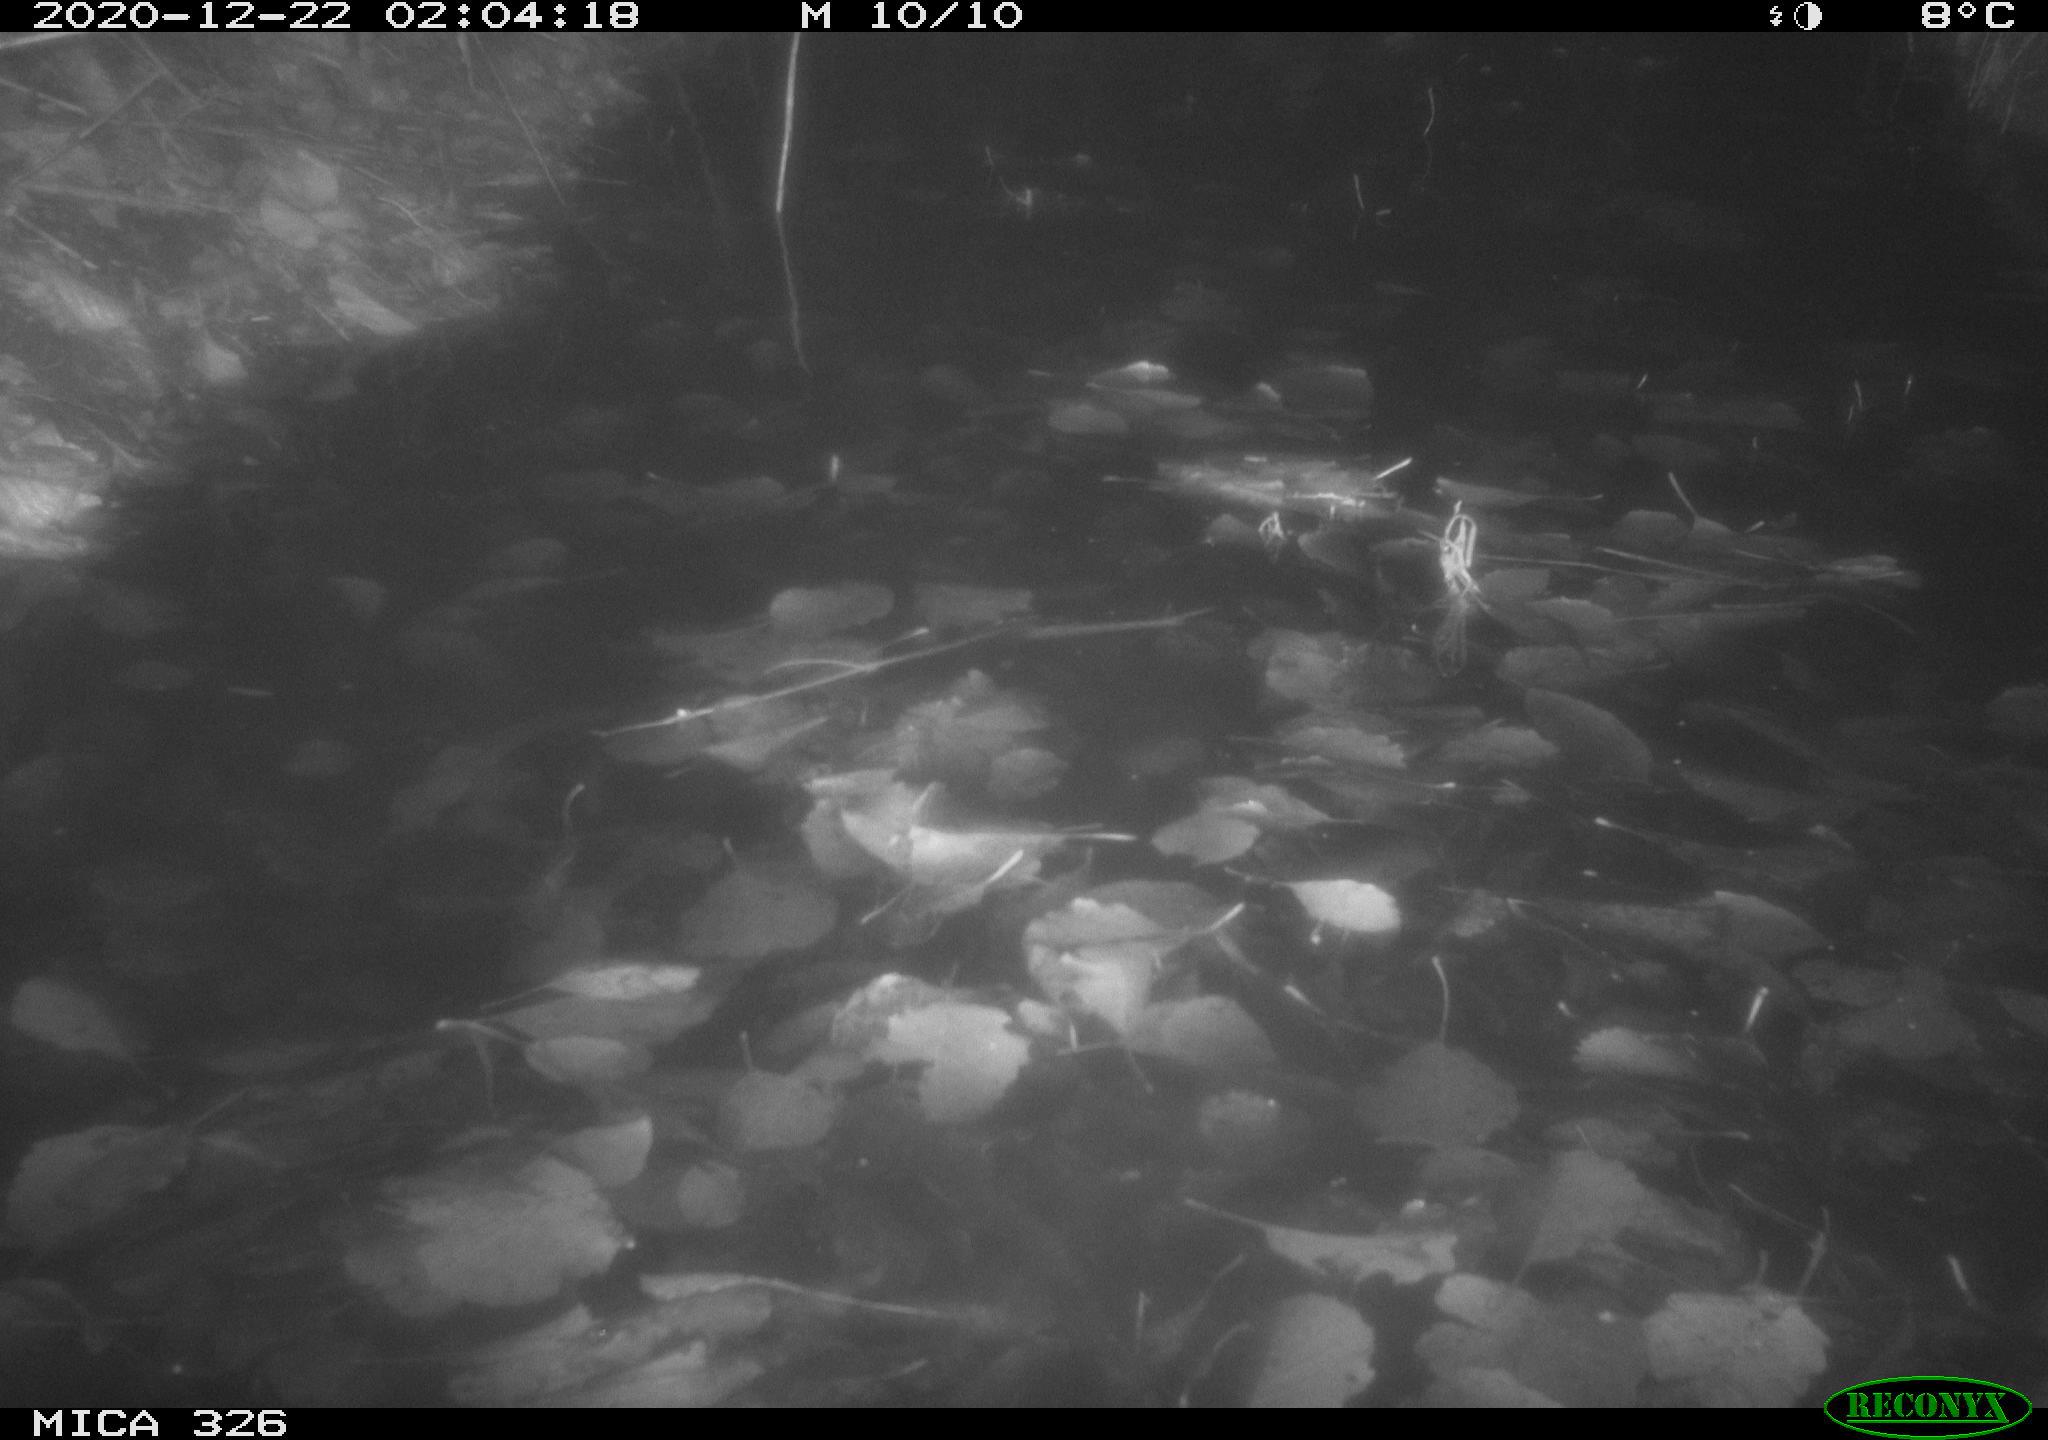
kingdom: Animalia
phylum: Chordata
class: Mammalia
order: Carnivora
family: Mustelidae
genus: Lutra
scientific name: Lutra lutra
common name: European otter
